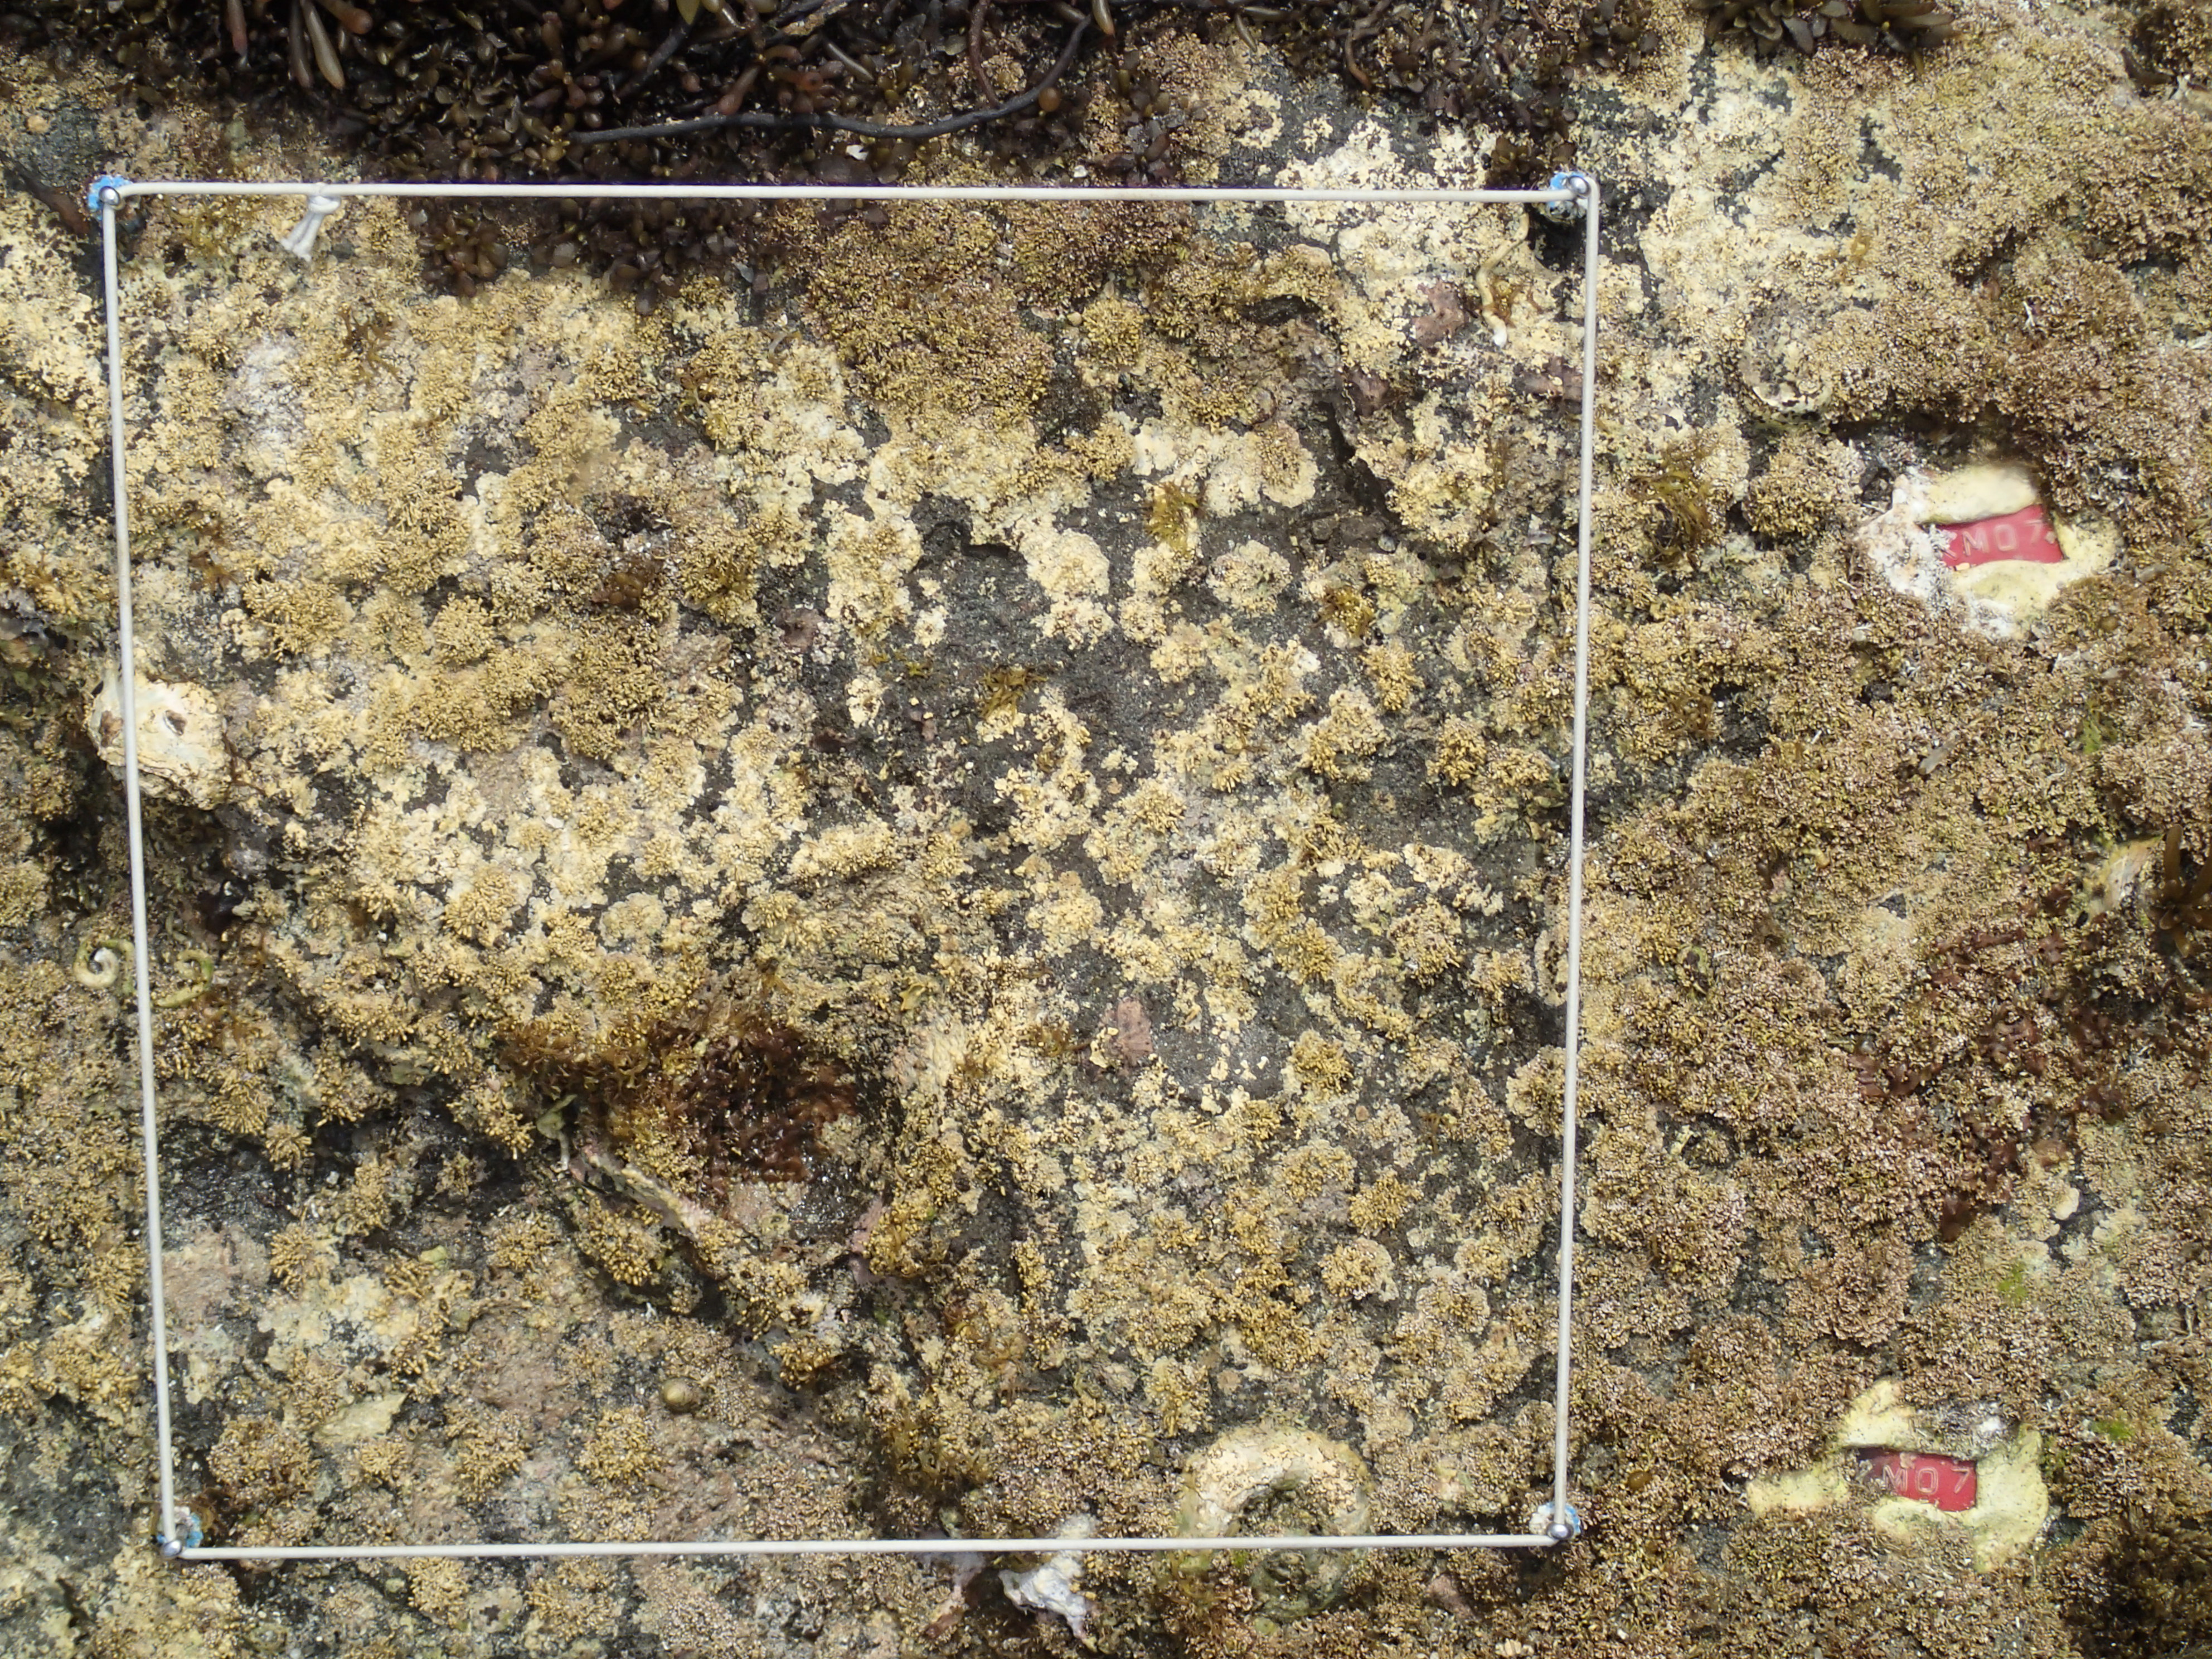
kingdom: Chromista
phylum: Ochrophyta
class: Phaeophyceae
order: Fucales
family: Sargassaceae
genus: Sargassum
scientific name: Sargassum fusiforme
